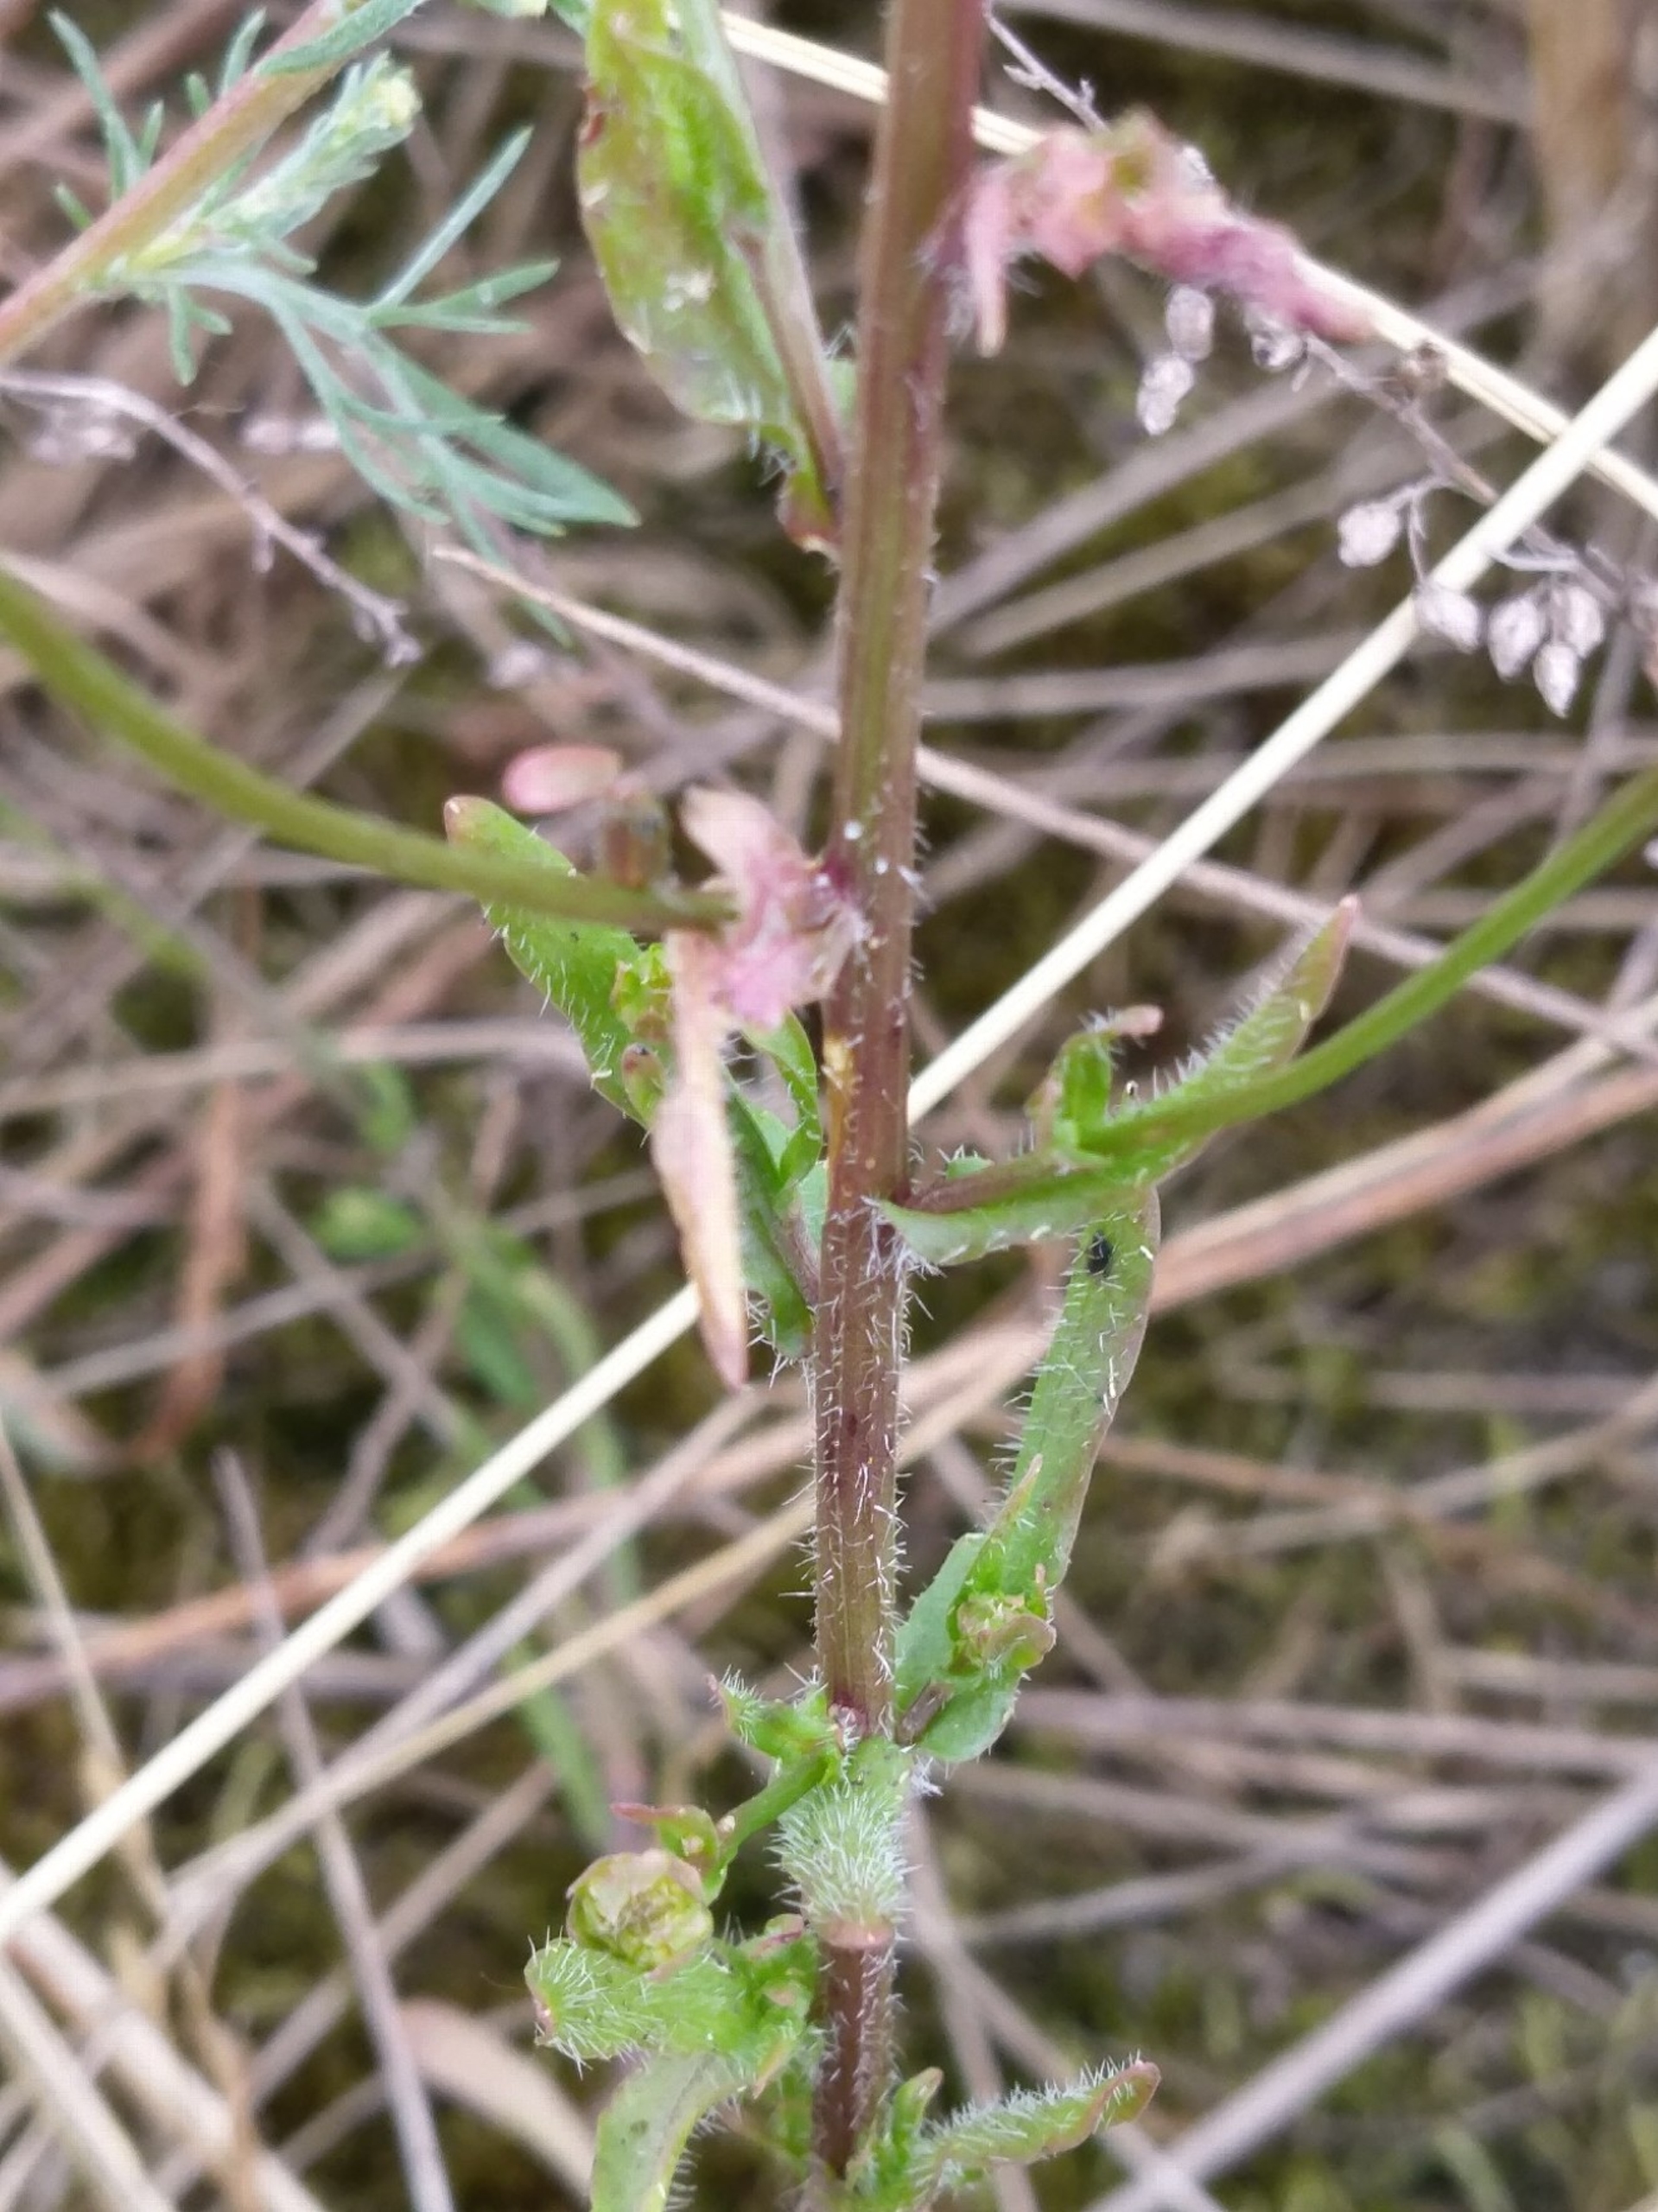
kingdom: Plantae
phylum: Tracheophyta
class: Magnoliopsida
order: Asterales
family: Campanulaceae
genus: Jasione
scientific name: Jasione montana
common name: Blåmunke
